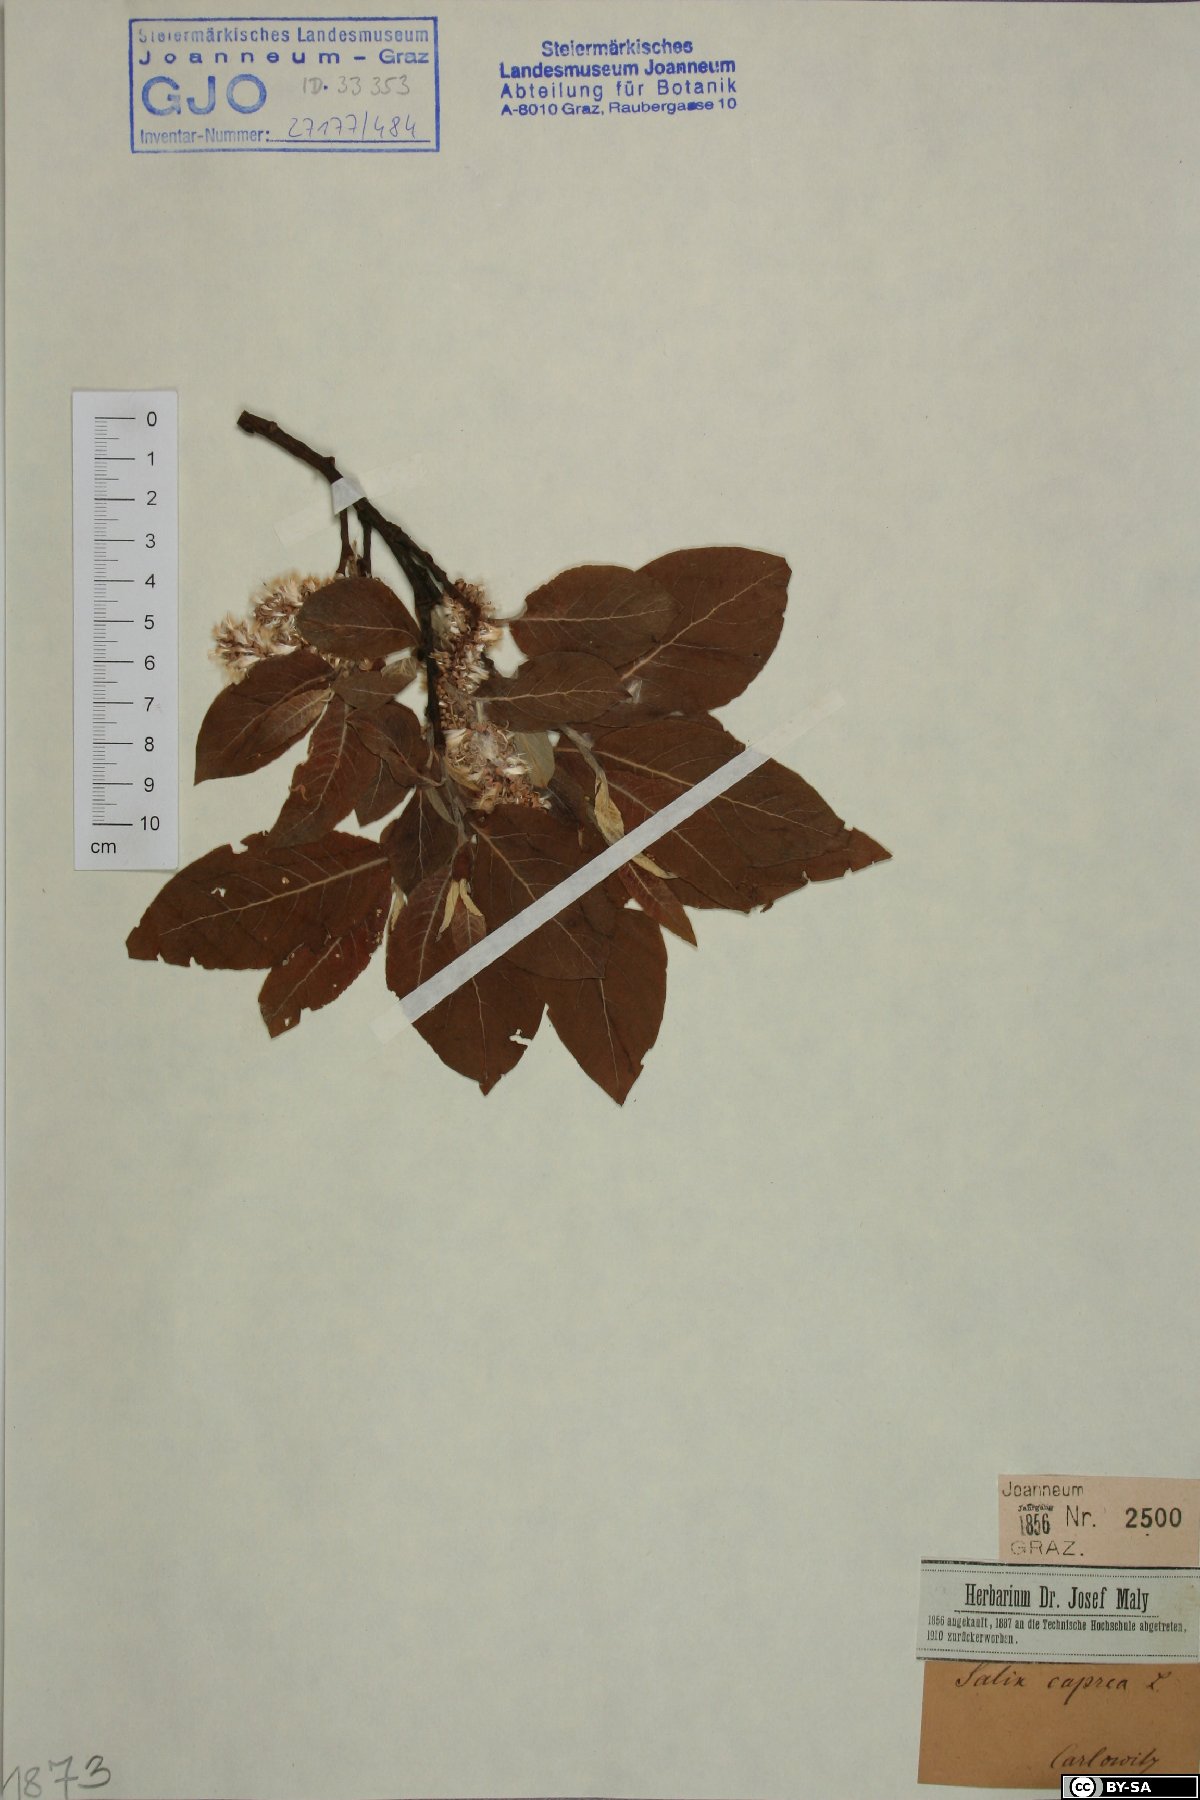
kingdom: Plantae
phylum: Tracheophyta
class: Magnoliopsida
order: Malpighiales
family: Salicaceae
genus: Salix
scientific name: Salix caprea
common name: Goat willow
